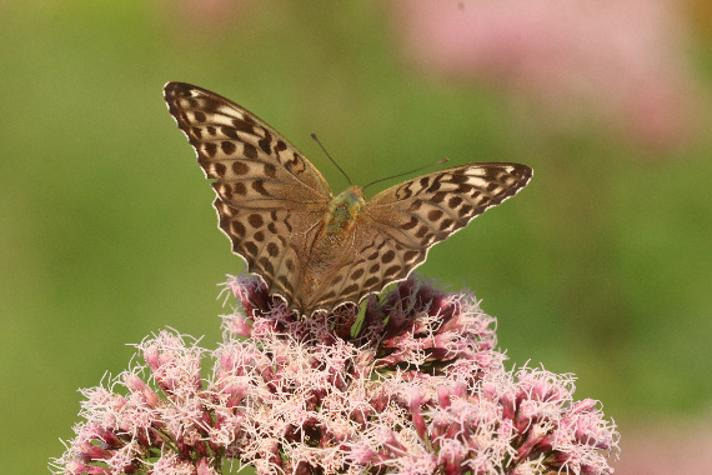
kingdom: Animalia
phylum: Arthropoda
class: Insecta
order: Lepidoptera
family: Nymphalidae
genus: Argynnis
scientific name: Argynnis paphia
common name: Kejserkåbe
